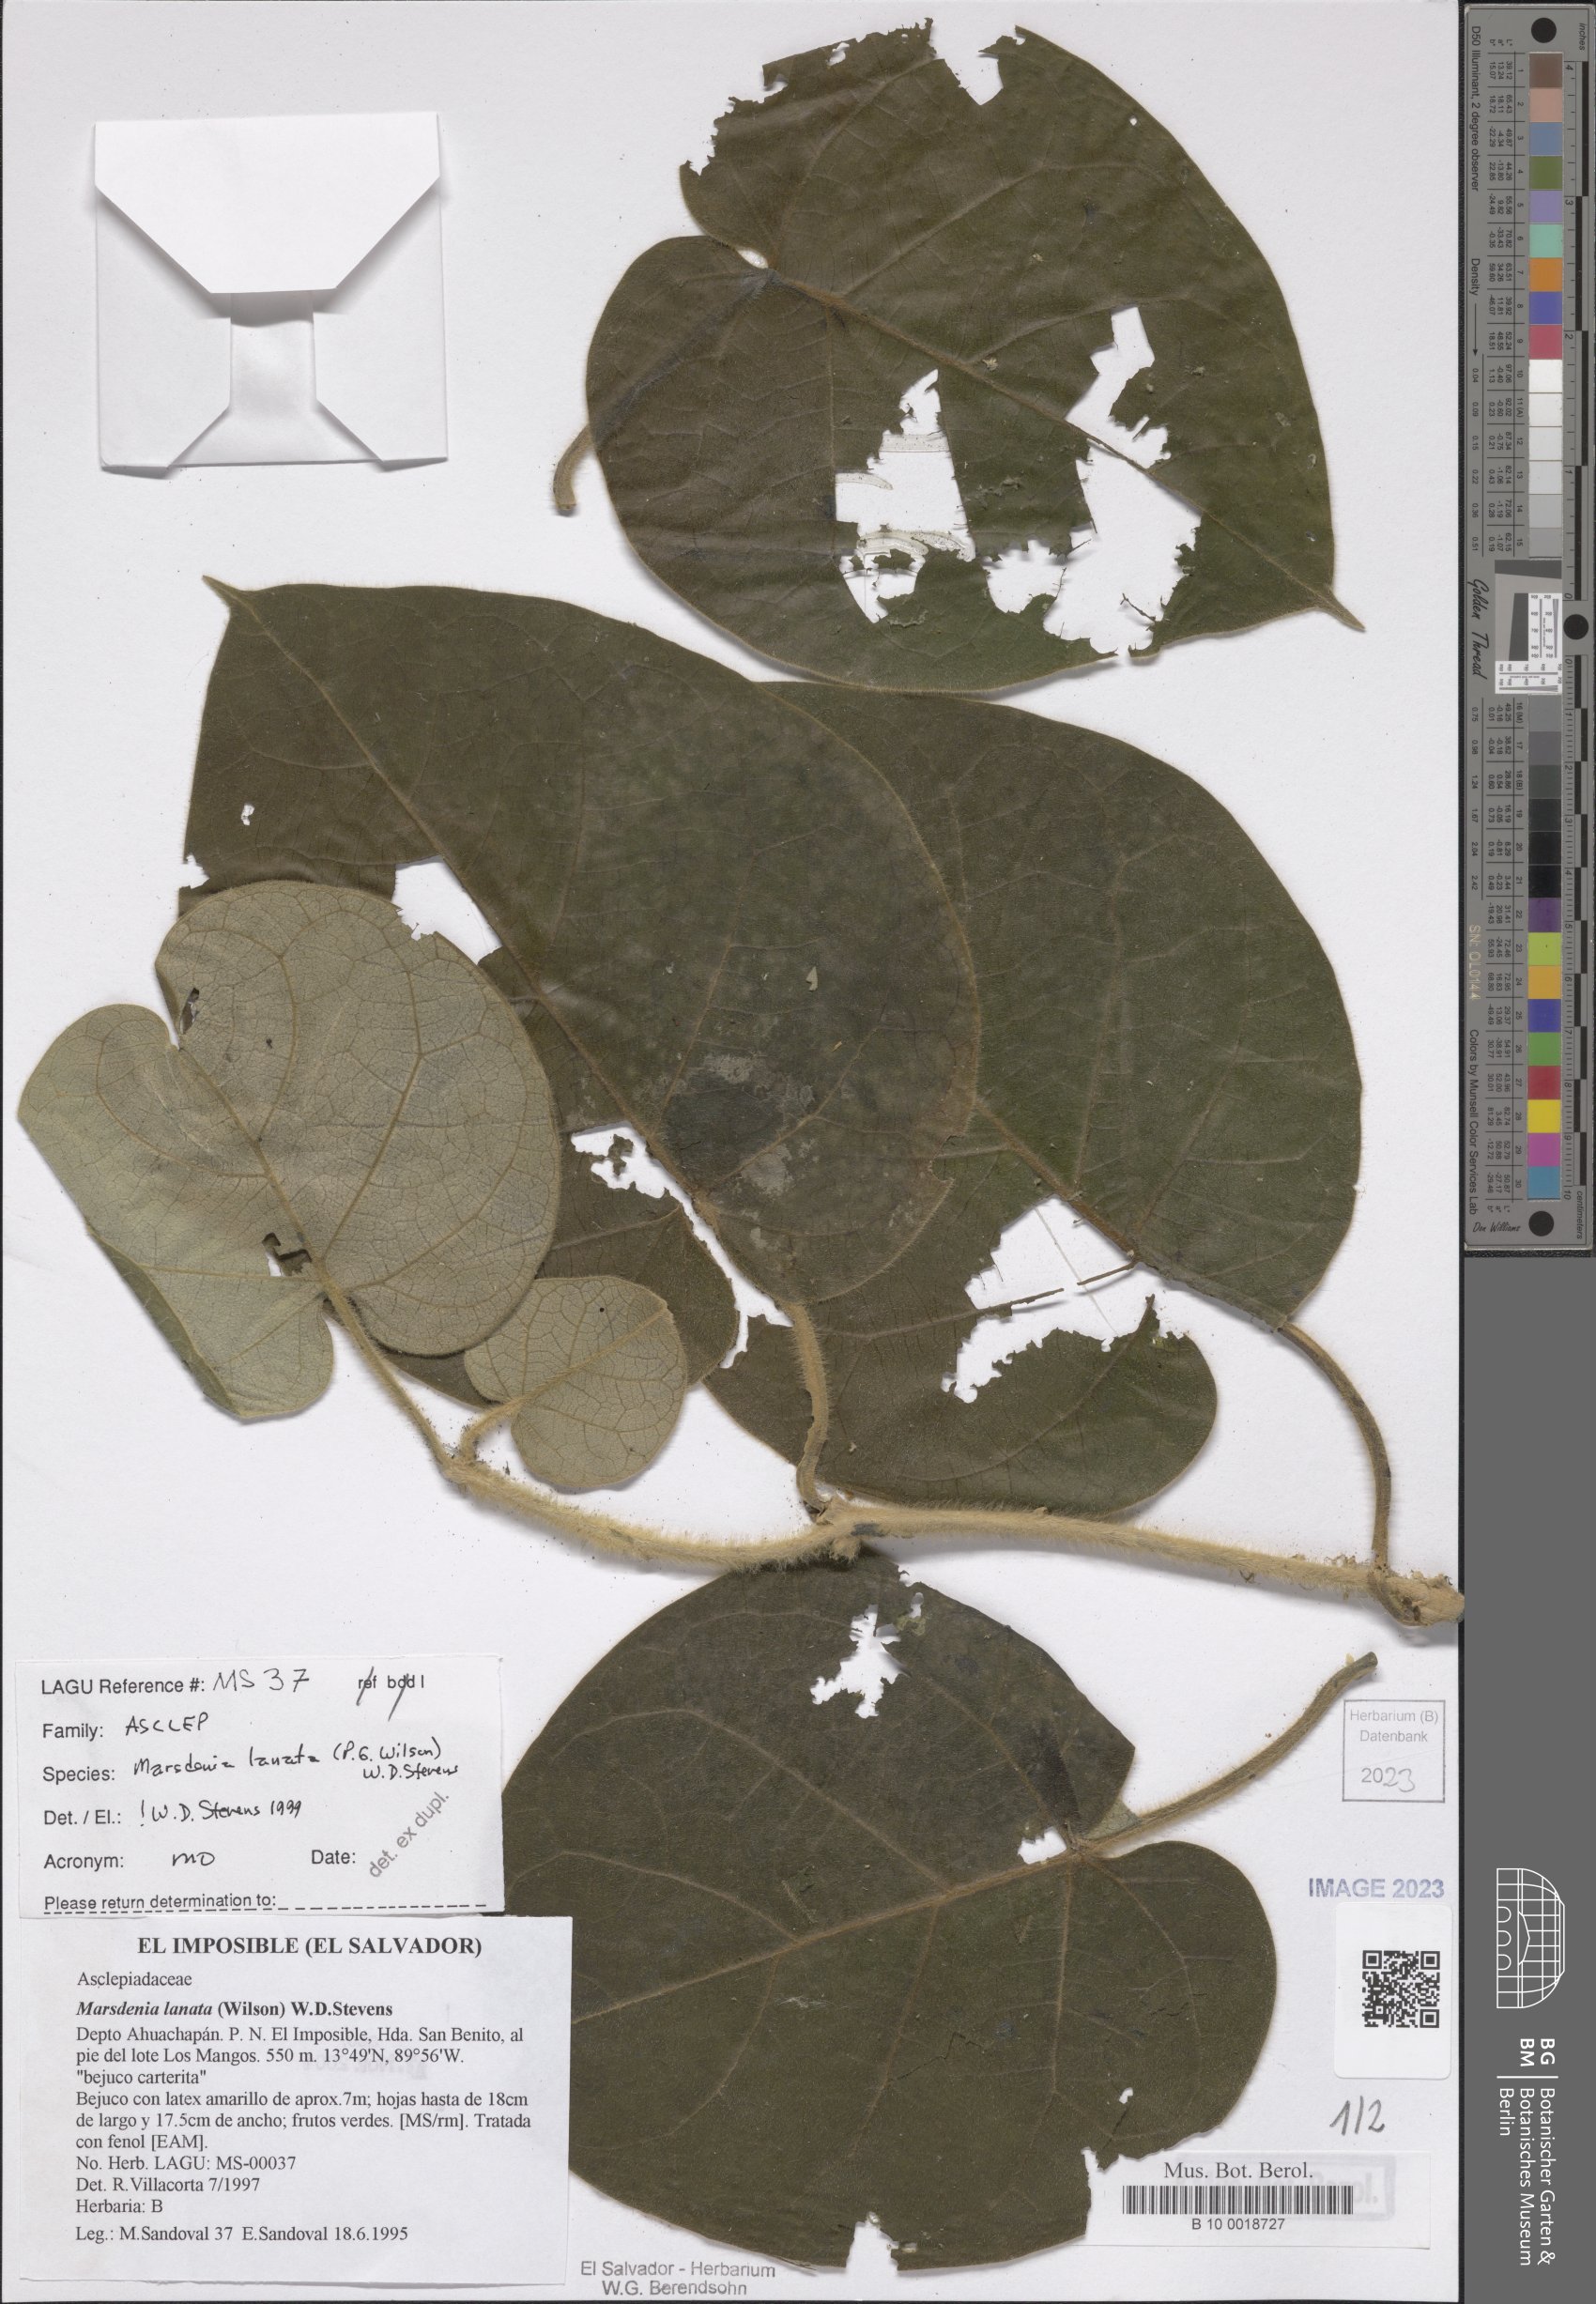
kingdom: Plantae
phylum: Tracheophyta
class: Magnoliopsida
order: Gentianales
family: Apocynaceae
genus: Ruehssia
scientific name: Ruehssia lanata
